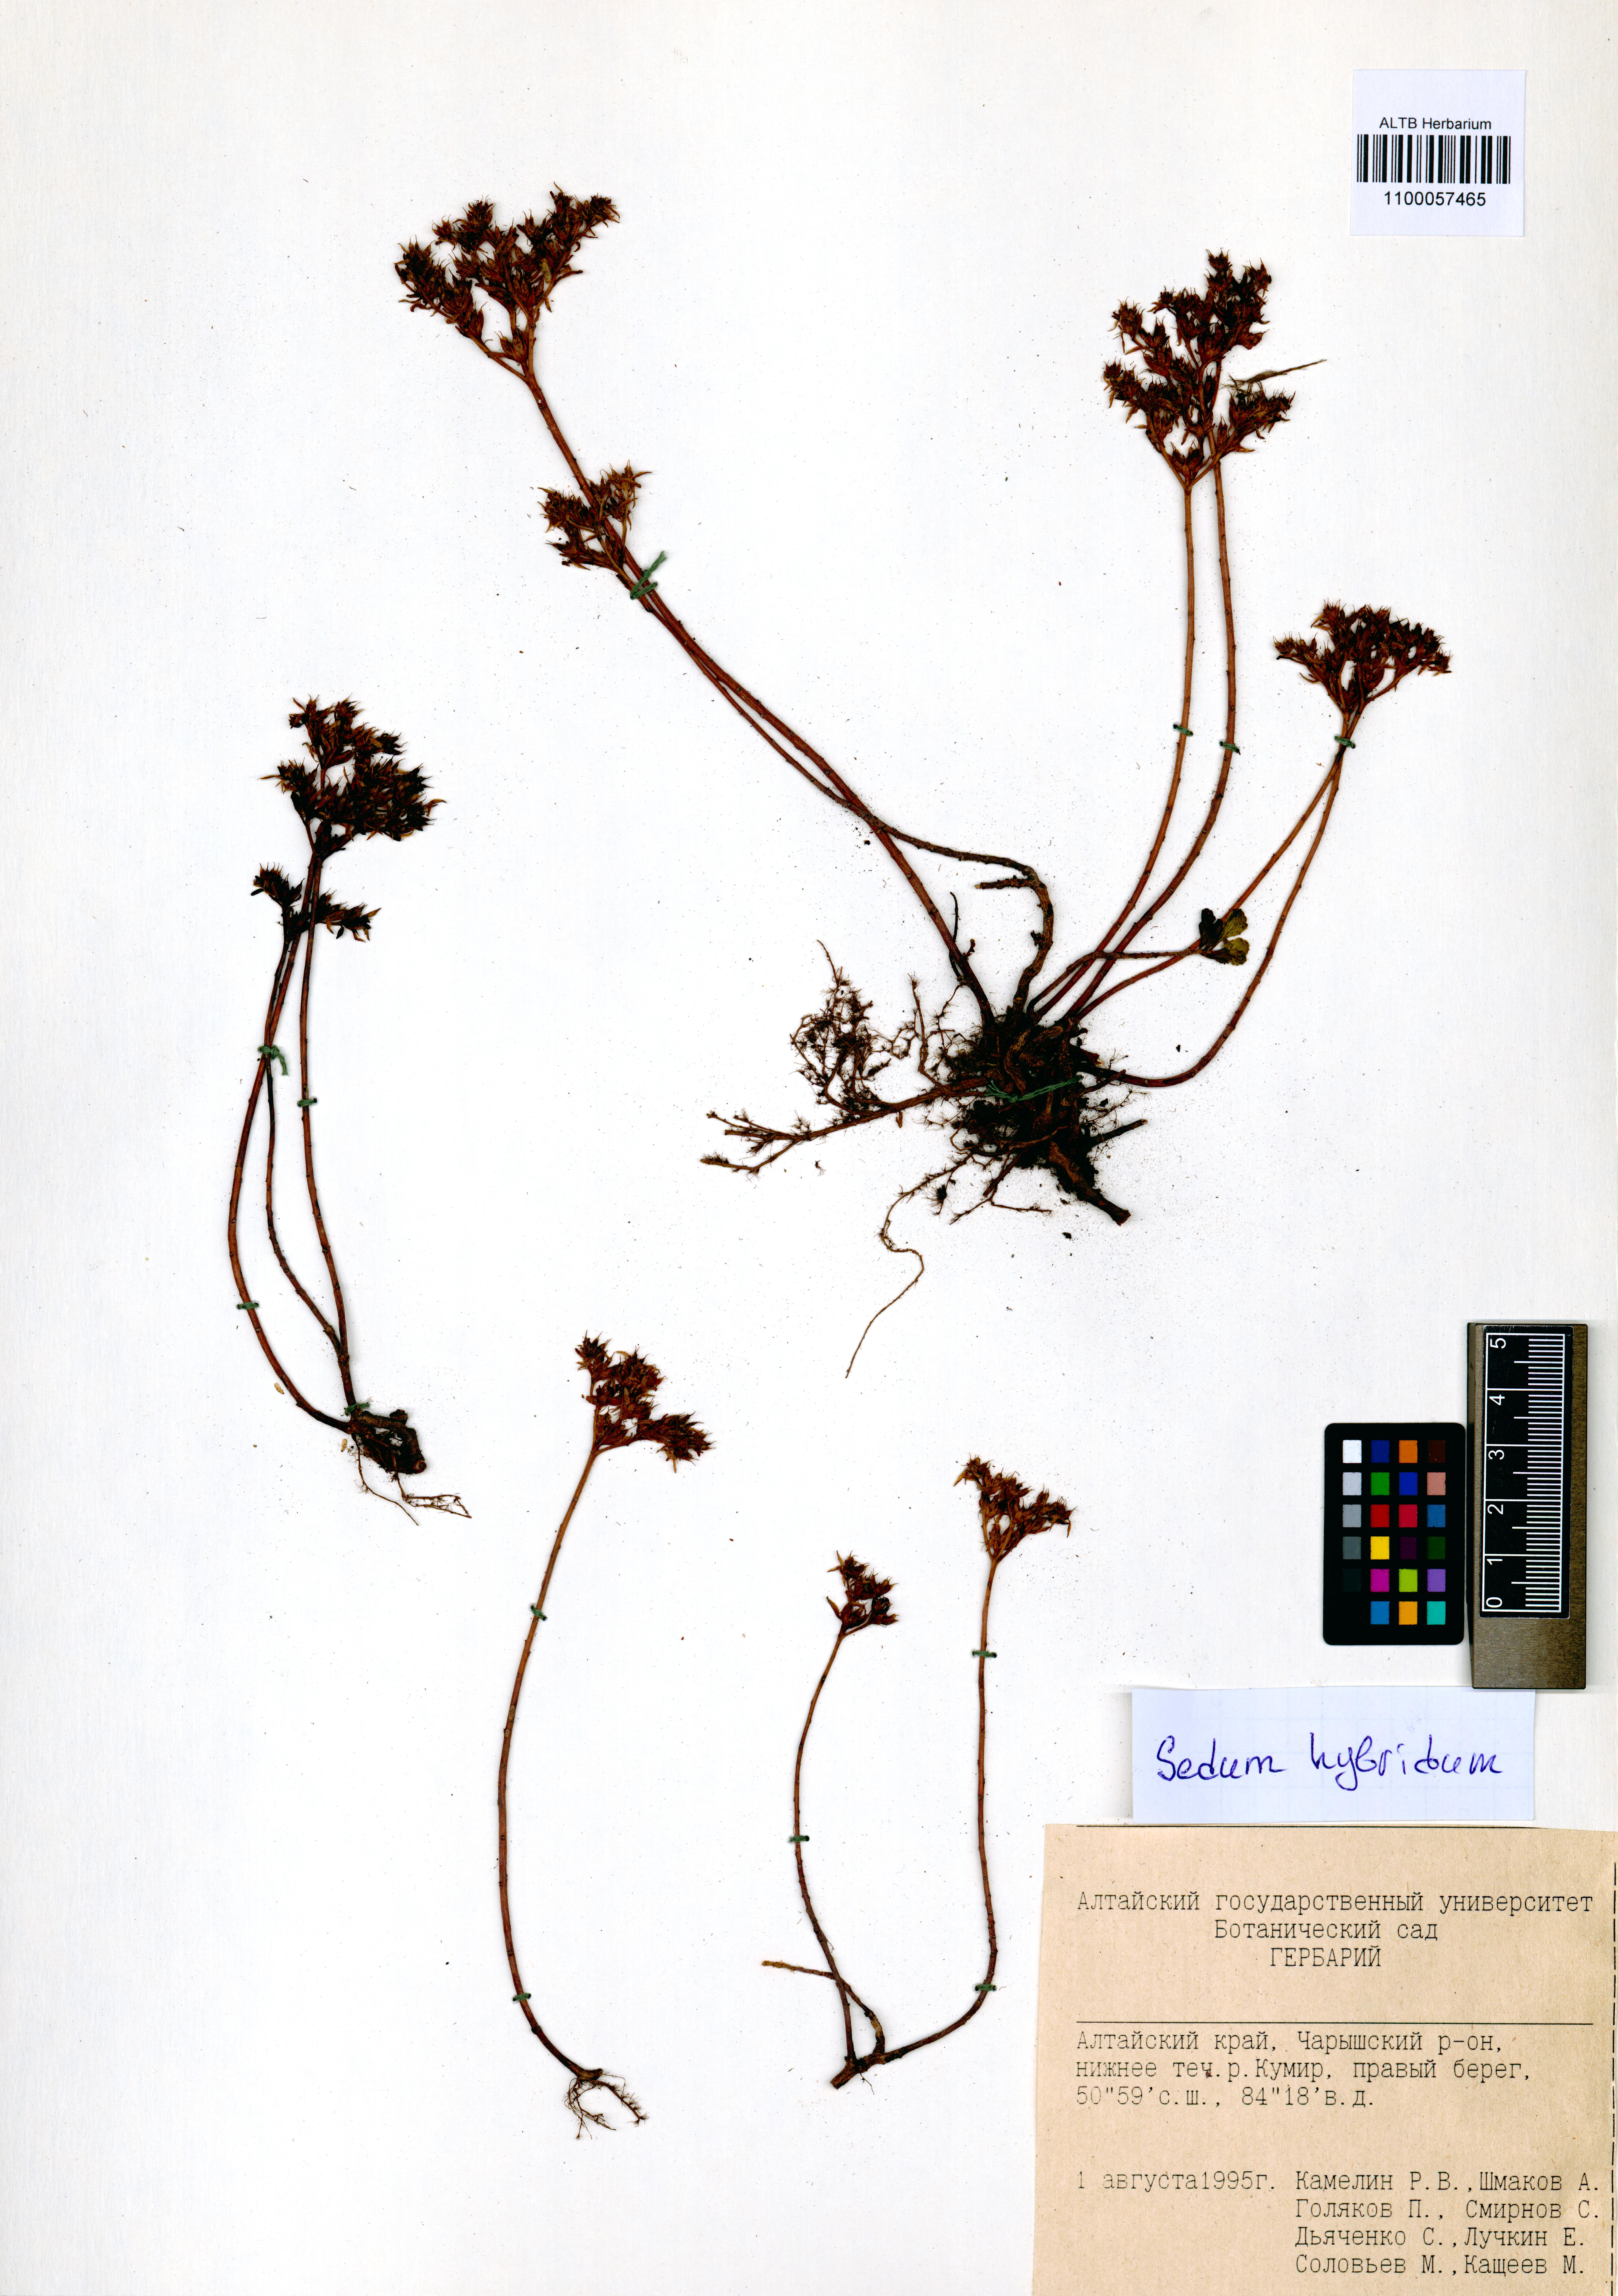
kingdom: Plantae
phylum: Tracheophyta
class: Magnoliopsida
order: Saxifragales
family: Crassulaceae
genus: Phedimus
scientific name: Phedimus hybridus
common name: Hybrid stonecrop
